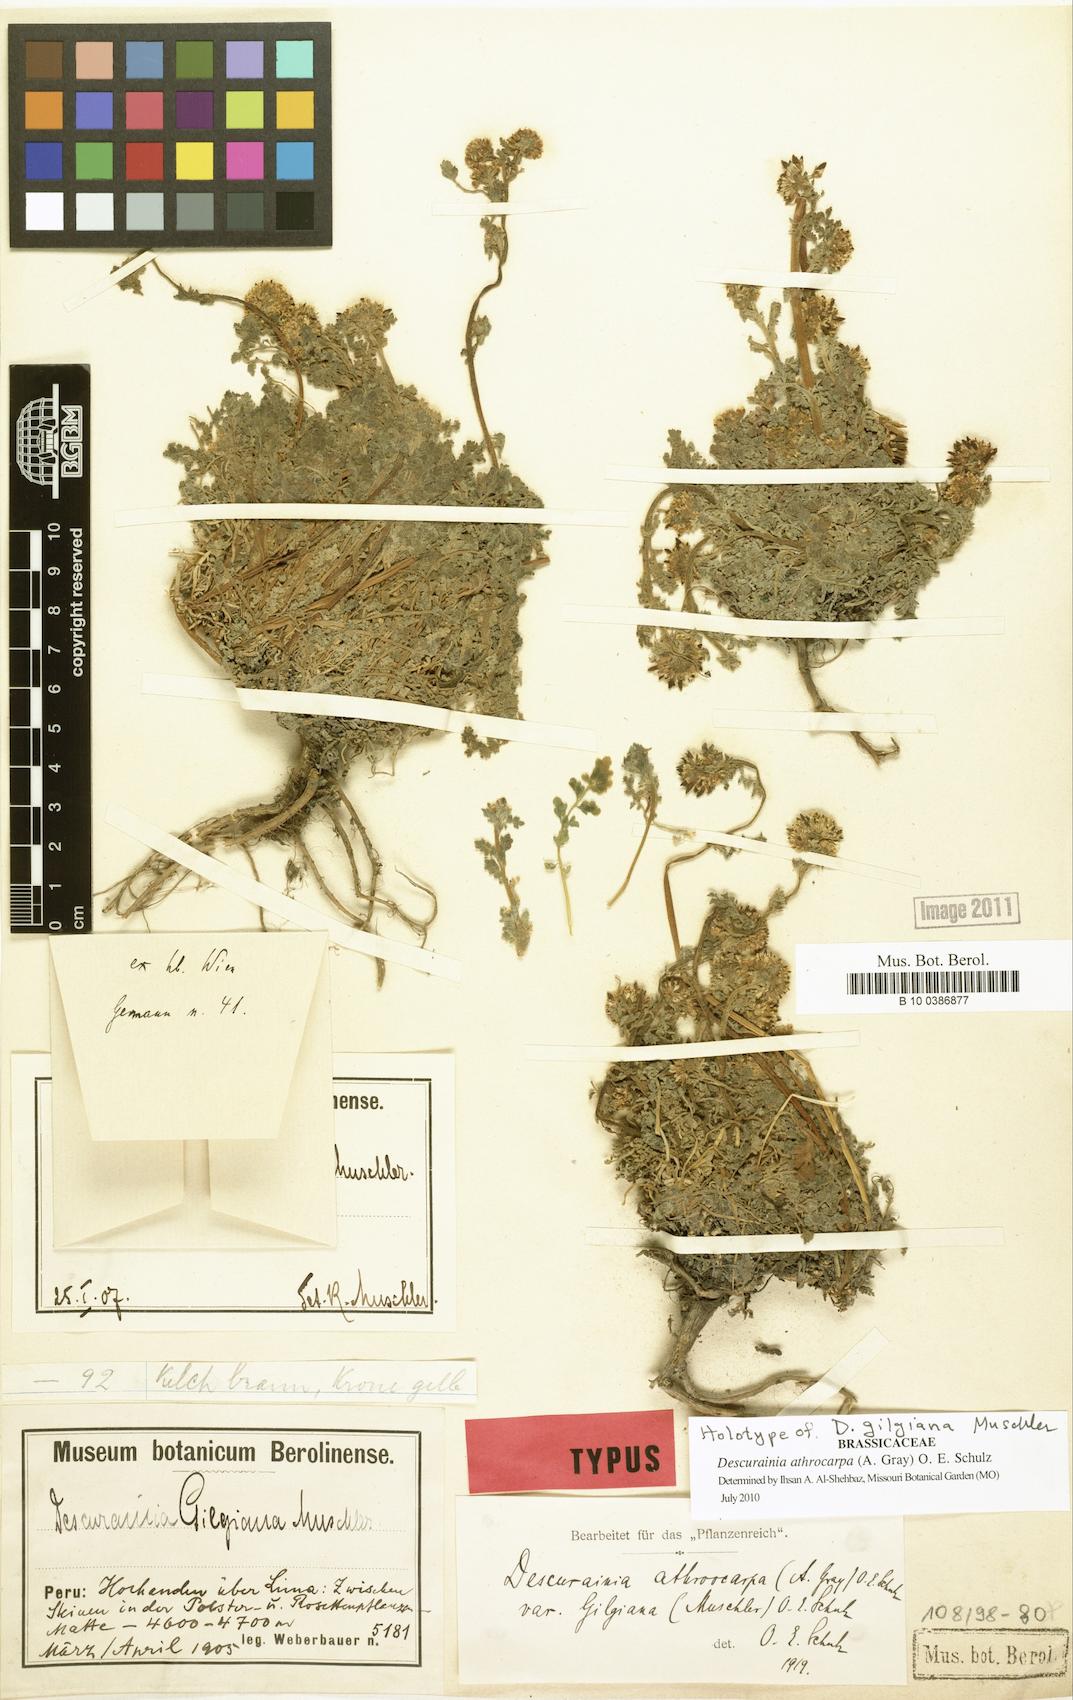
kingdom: Plantae
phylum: Tracheophyta
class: Magnoliopsida
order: Brassicales
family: Brassicaceae
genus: Descurainia
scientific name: Descurainia athrocarpa
